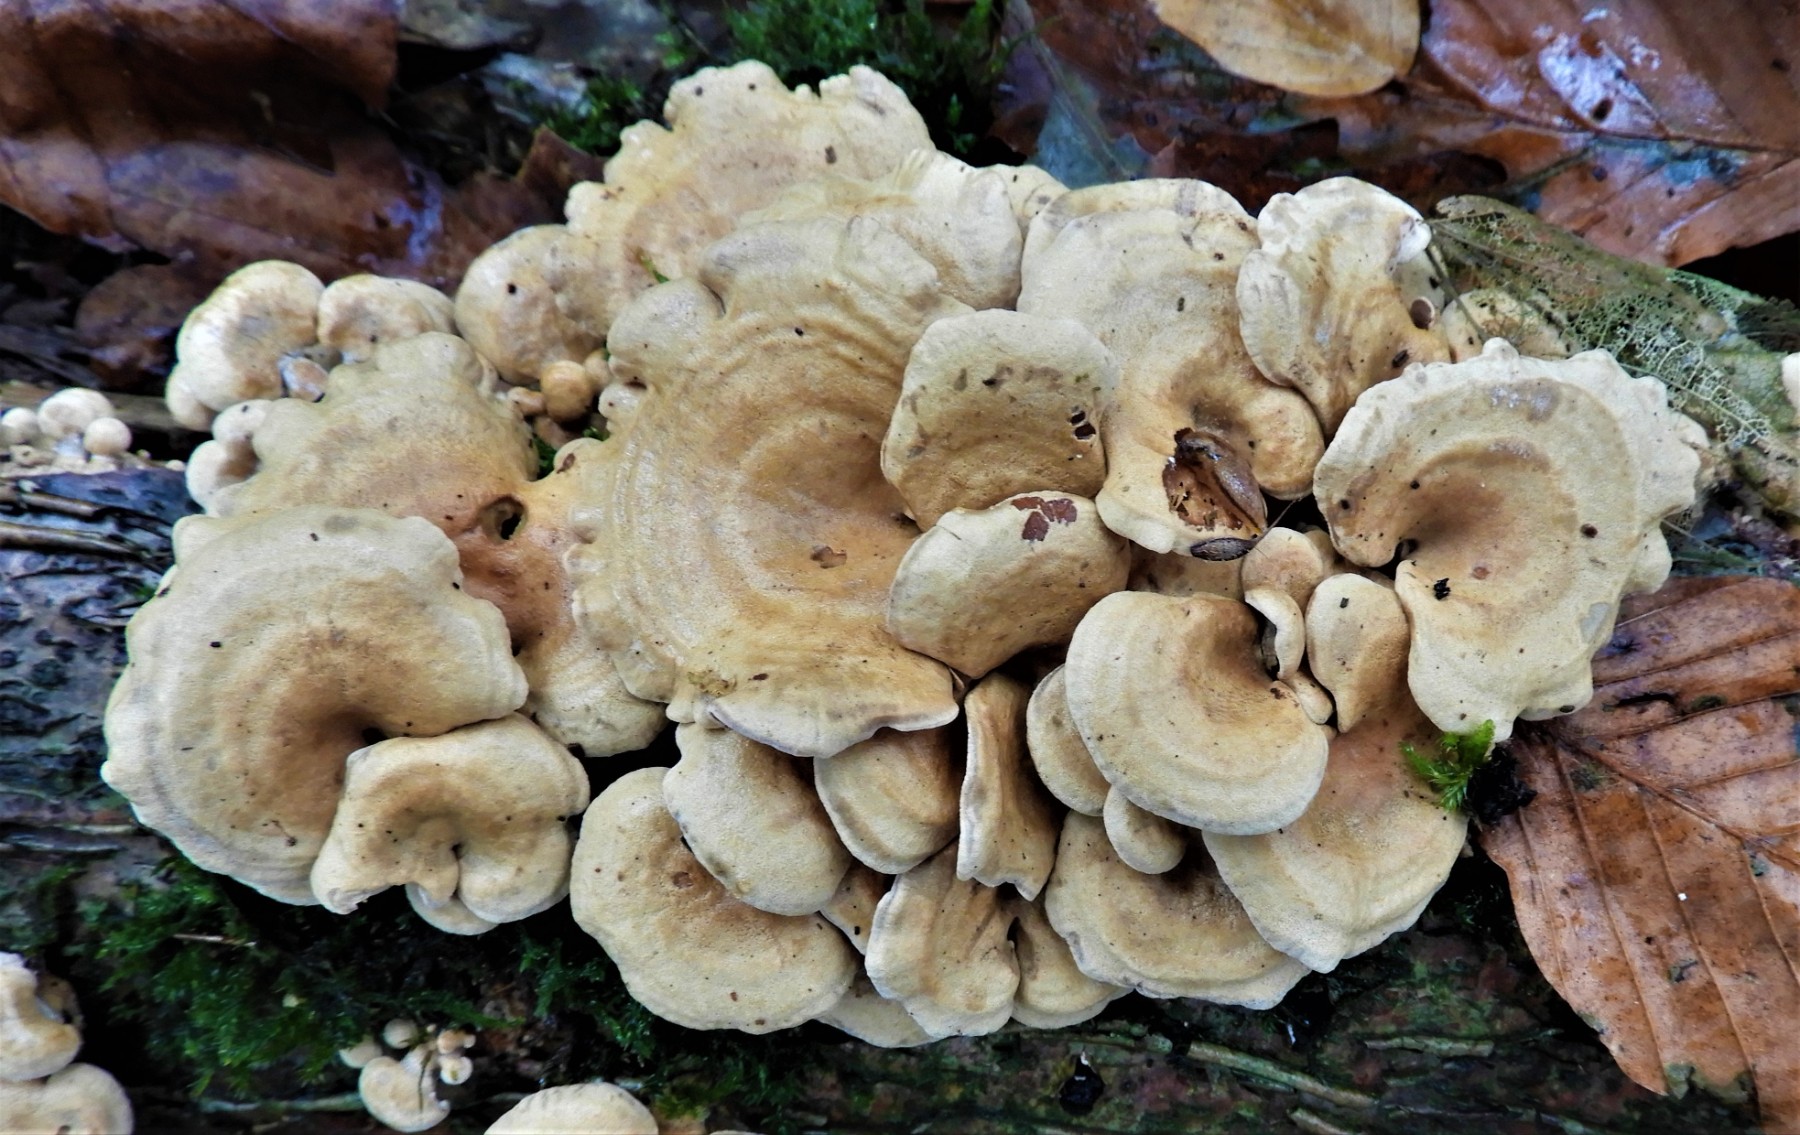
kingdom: Fungi
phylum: Basidiomycota
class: Agaricomycetes
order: Agaricales
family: Mycenaceae
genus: Panellus
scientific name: Panellus stipticus
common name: kliddet epaulethat
